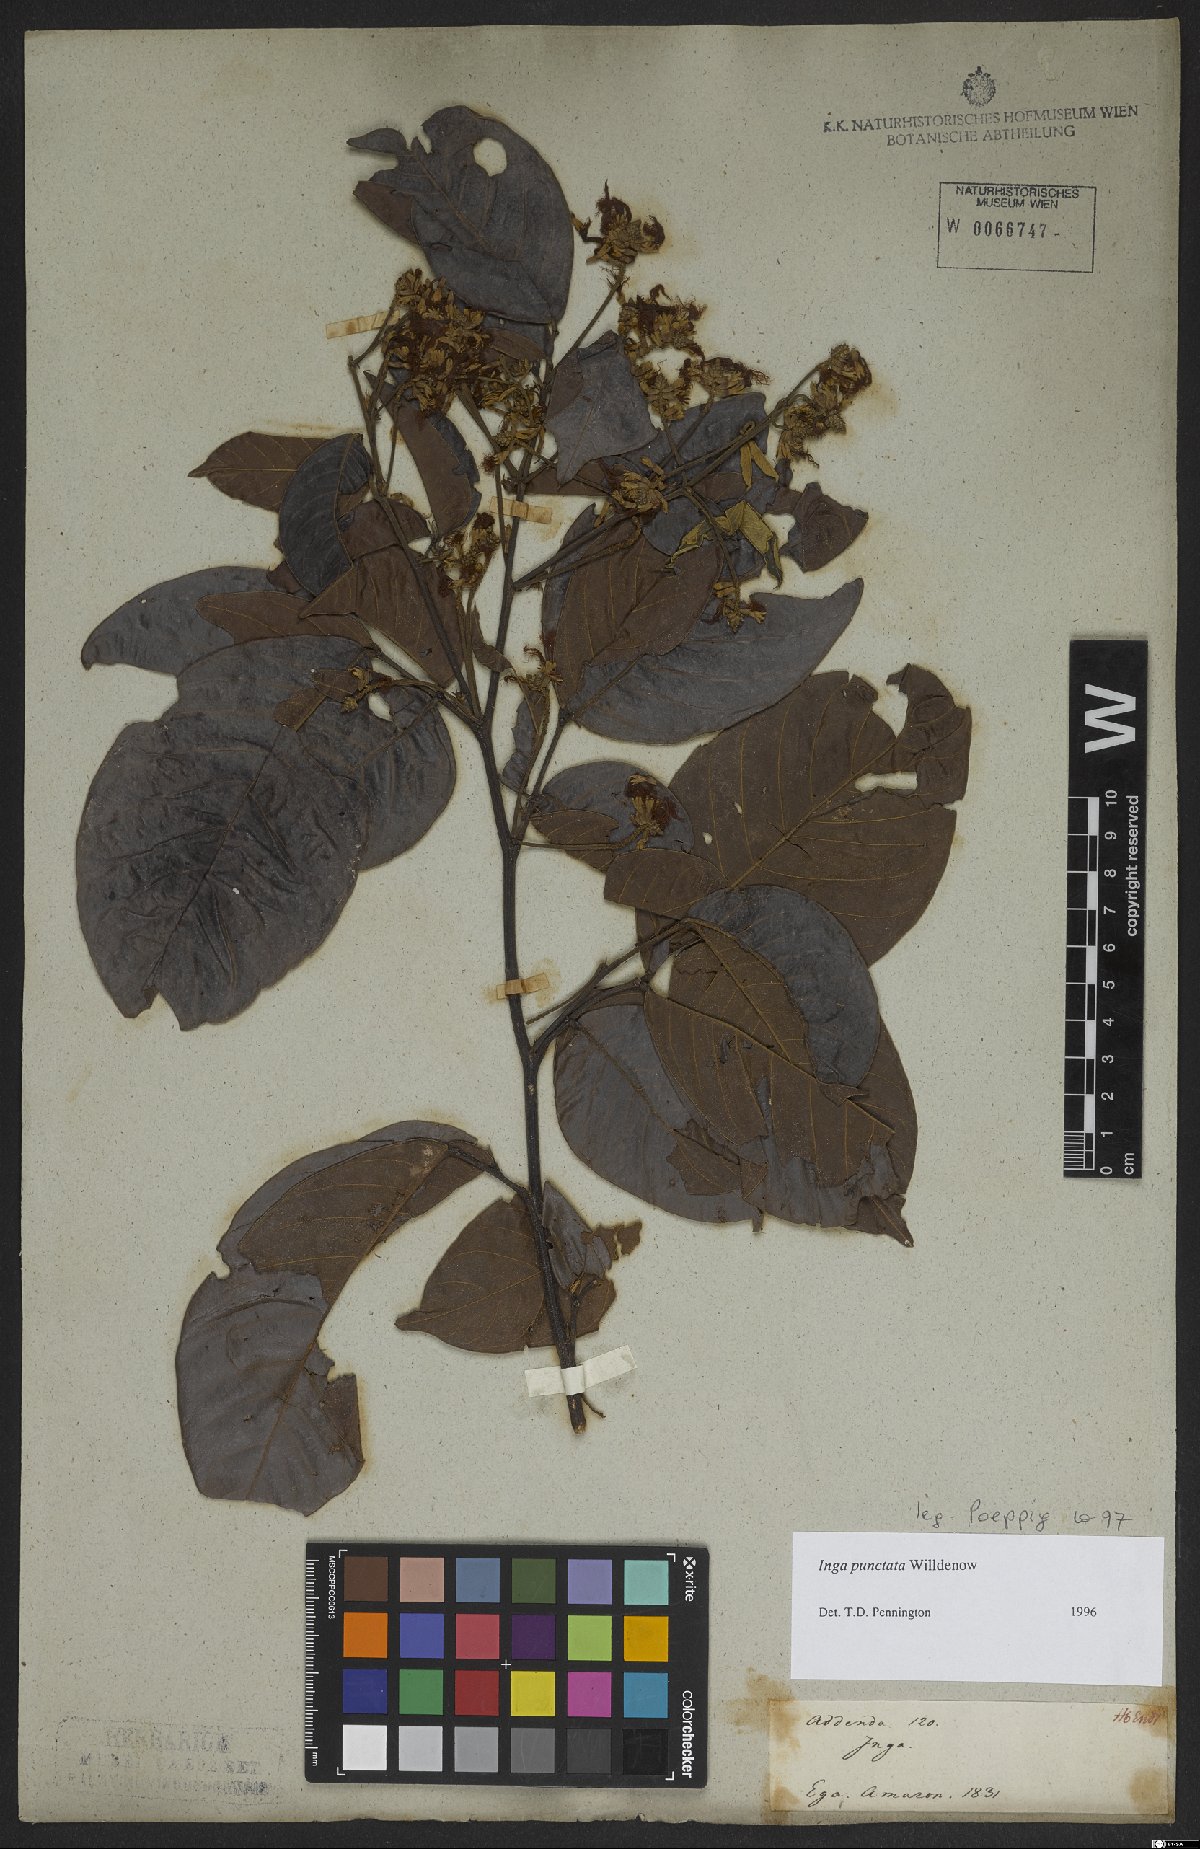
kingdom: Plantae
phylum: Tracheophyta
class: Magnoliopsida
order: Fabales
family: Fabaceae
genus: Inga
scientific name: Inga punctata
